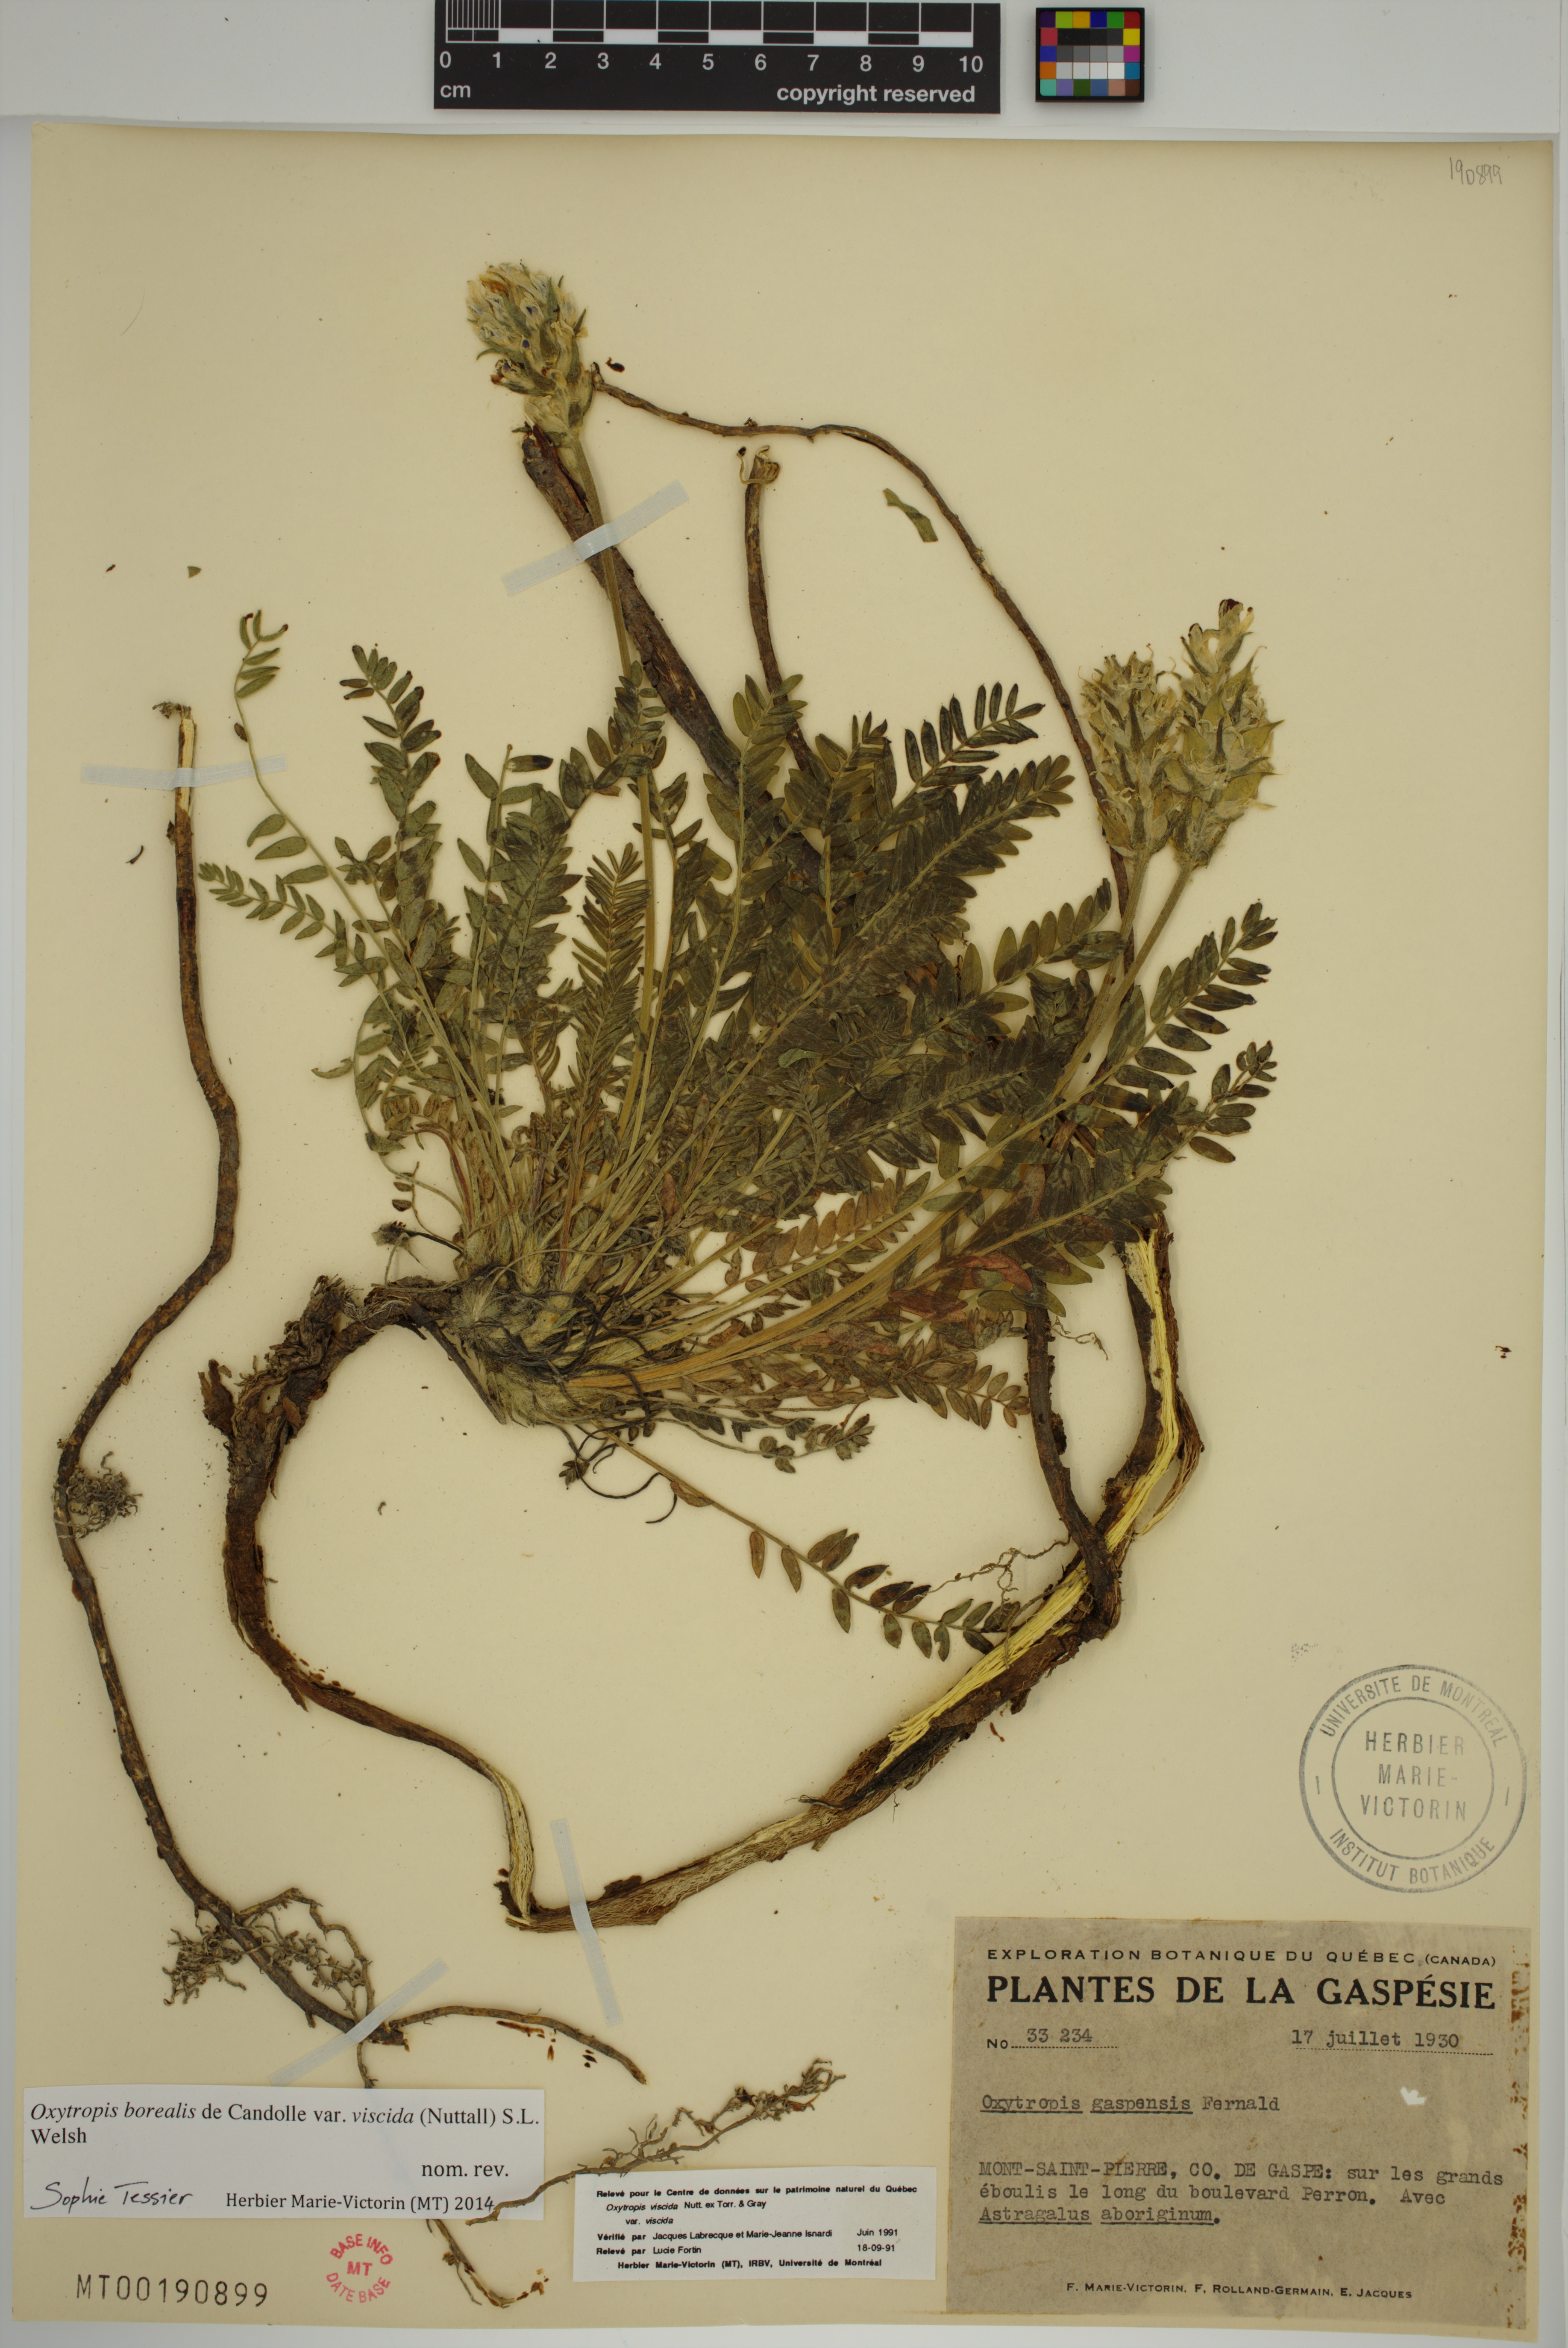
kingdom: Plantae
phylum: Tracheophyta
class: Magnoliopsida
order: Fabales
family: Fabaceae
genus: Oxytropis
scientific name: Oxytropis borealis
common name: Boreal locoweed
